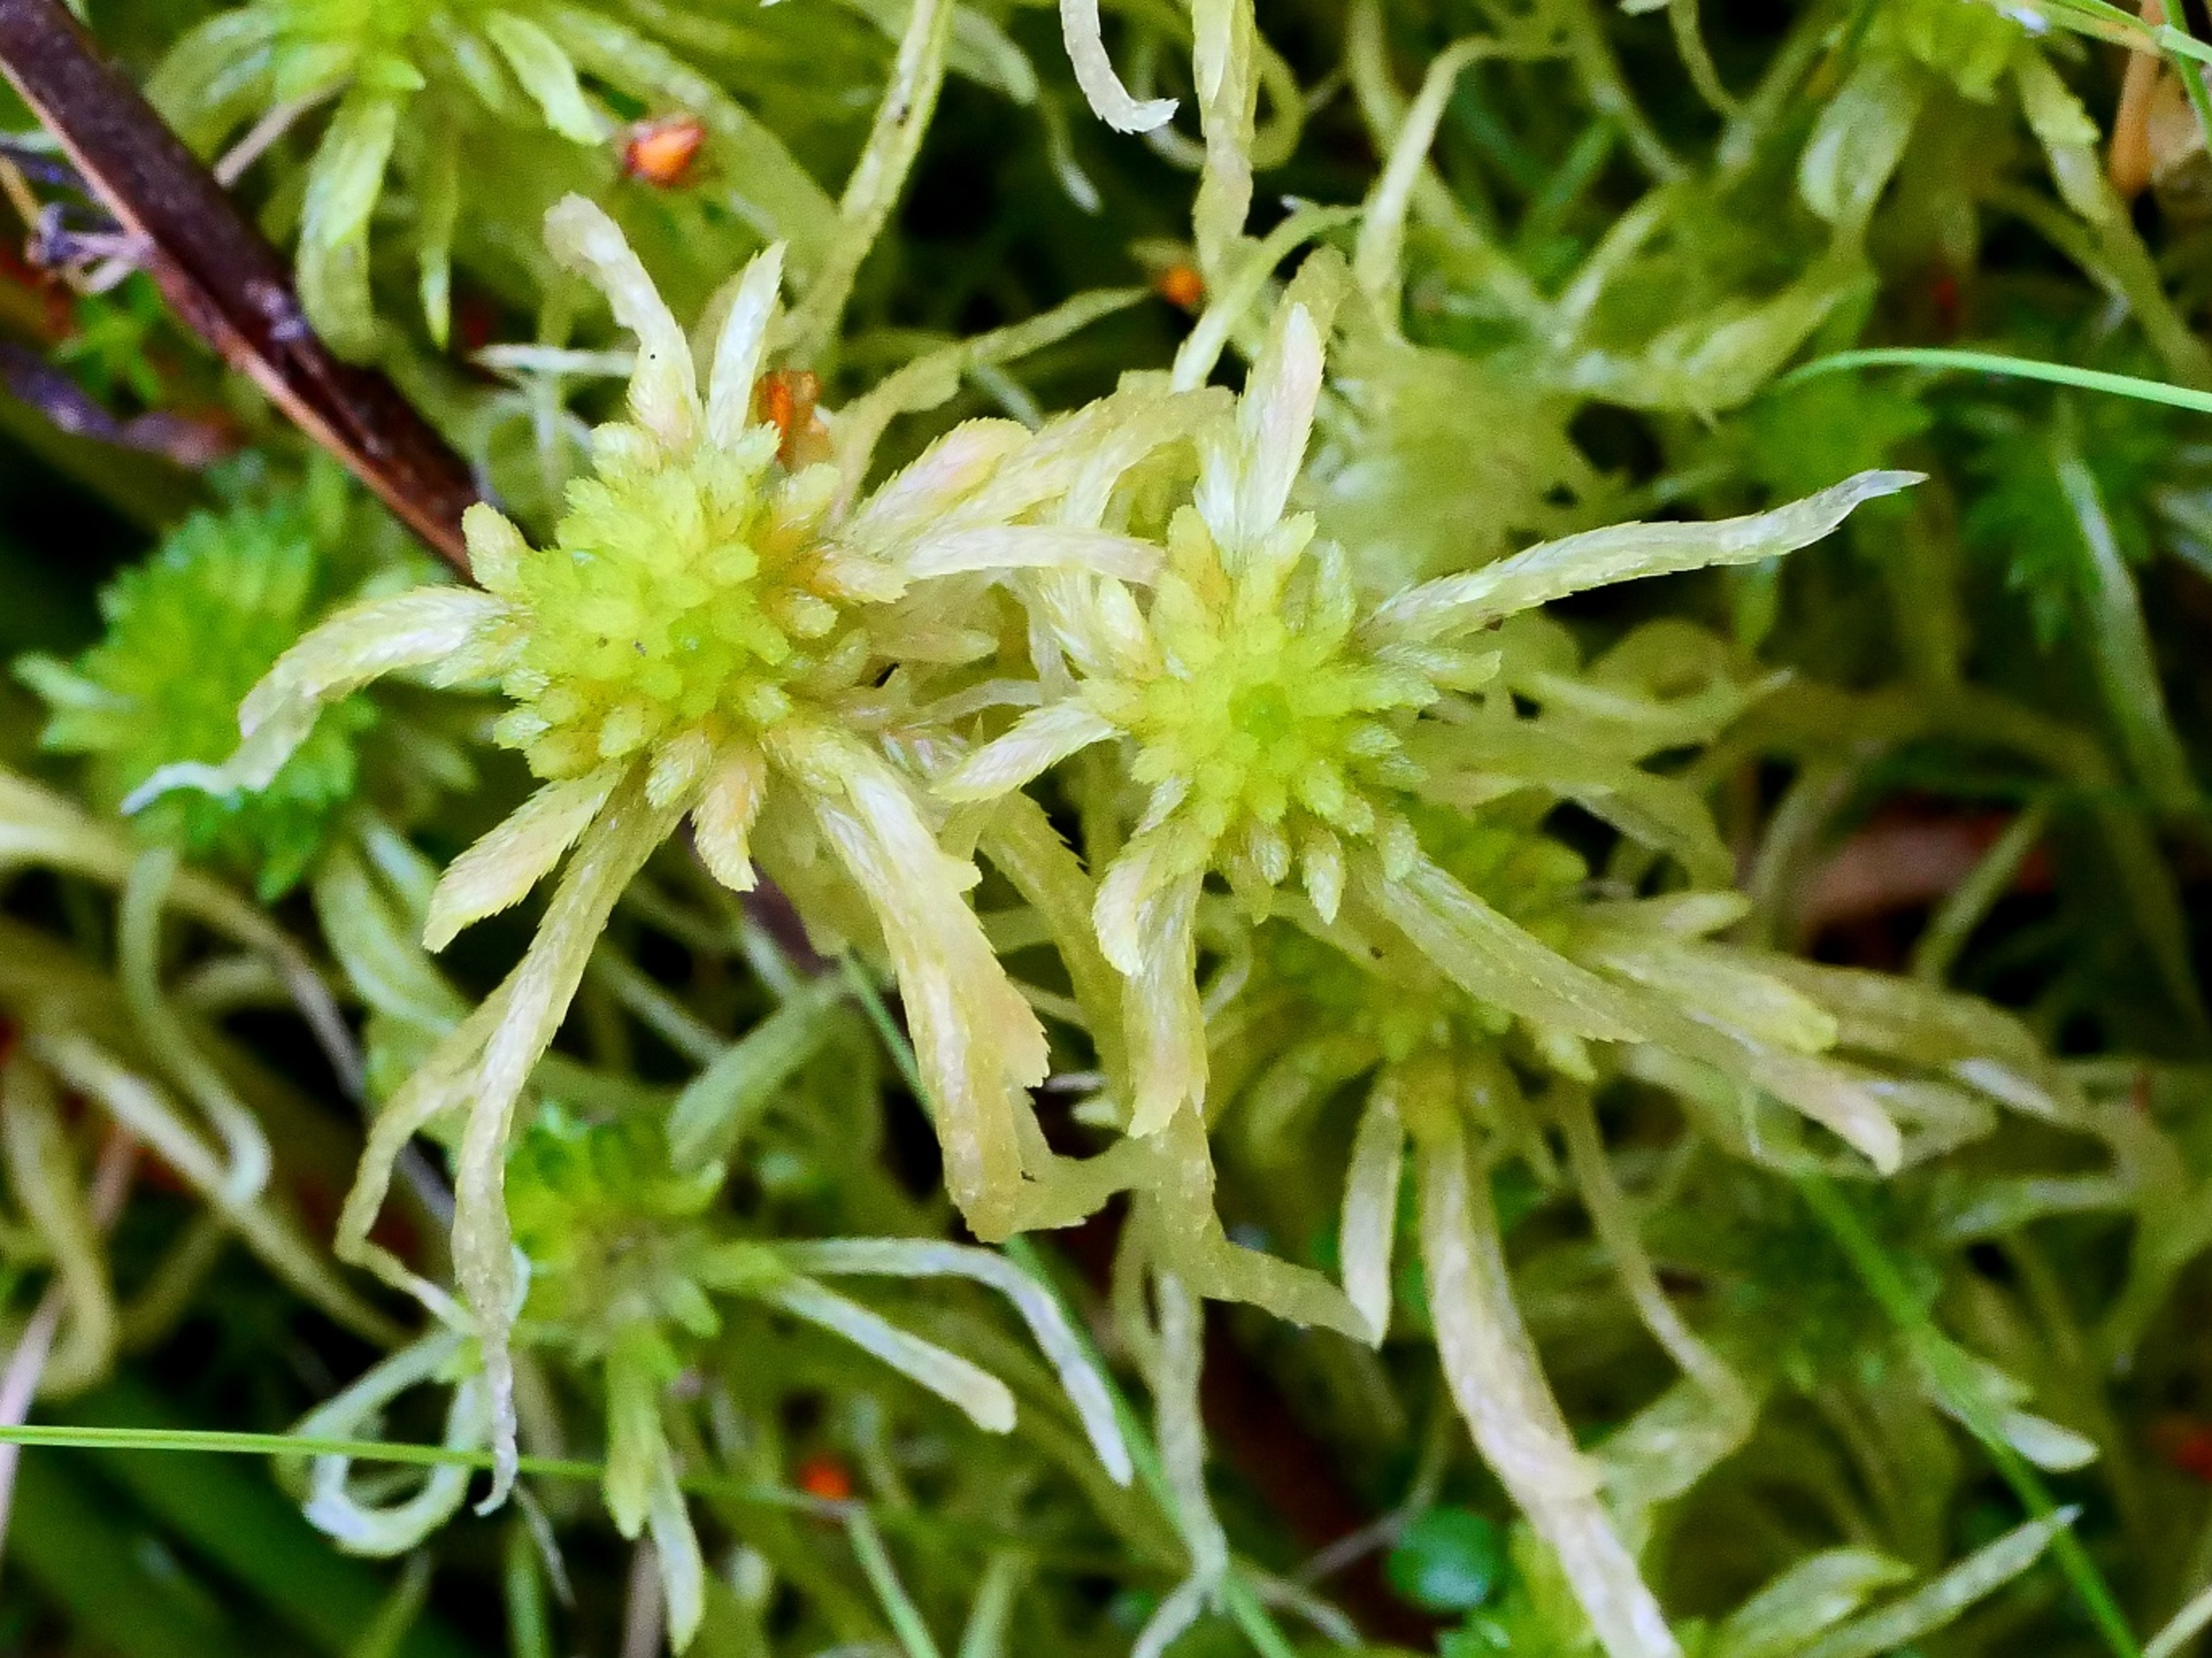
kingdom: Plantae
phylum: Bryophyta
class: Sphagnopsida
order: Sphagnales
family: Sphagnaceae
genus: Sphagnum
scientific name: Sphagnum flexuosum
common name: Kuplet tørvemos
